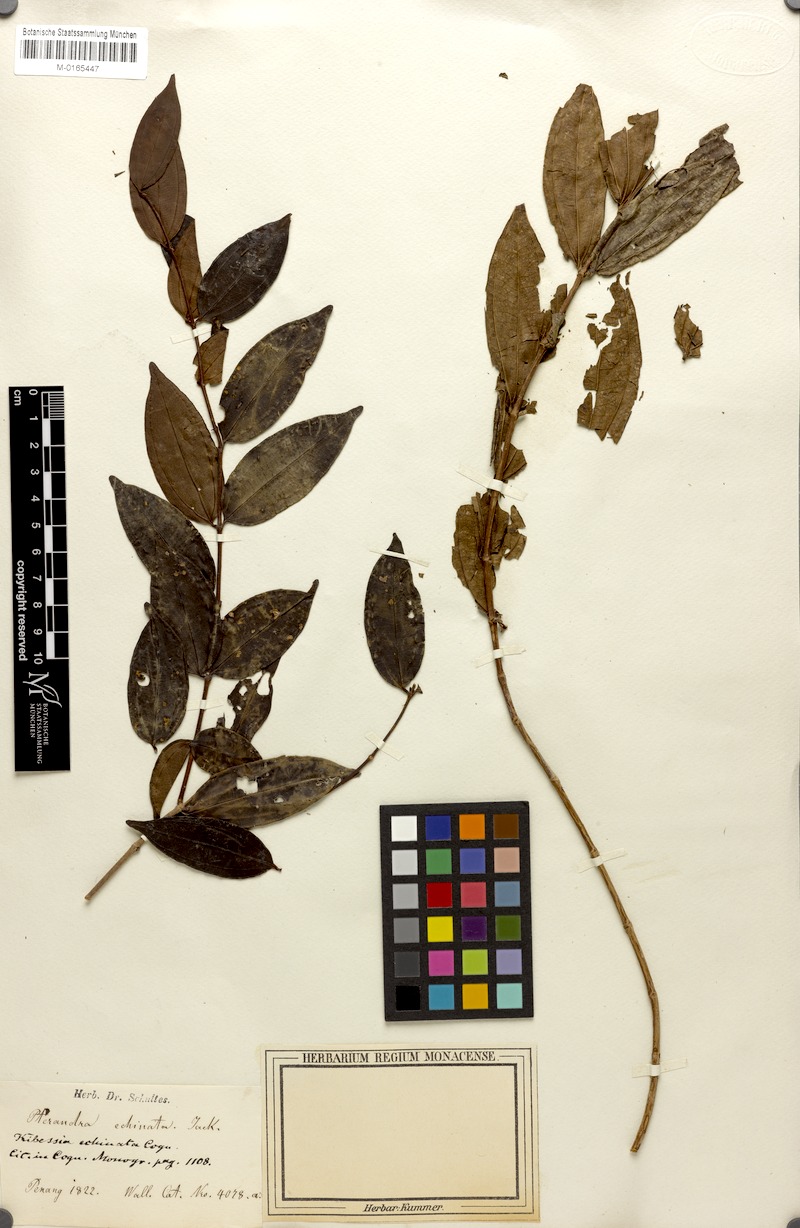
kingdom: Plantae
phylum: Tracheophyta
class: Magnoliopsida
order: Myrtales
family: Melastomataceae
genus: Pternandra
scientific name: Pternandra echinata
